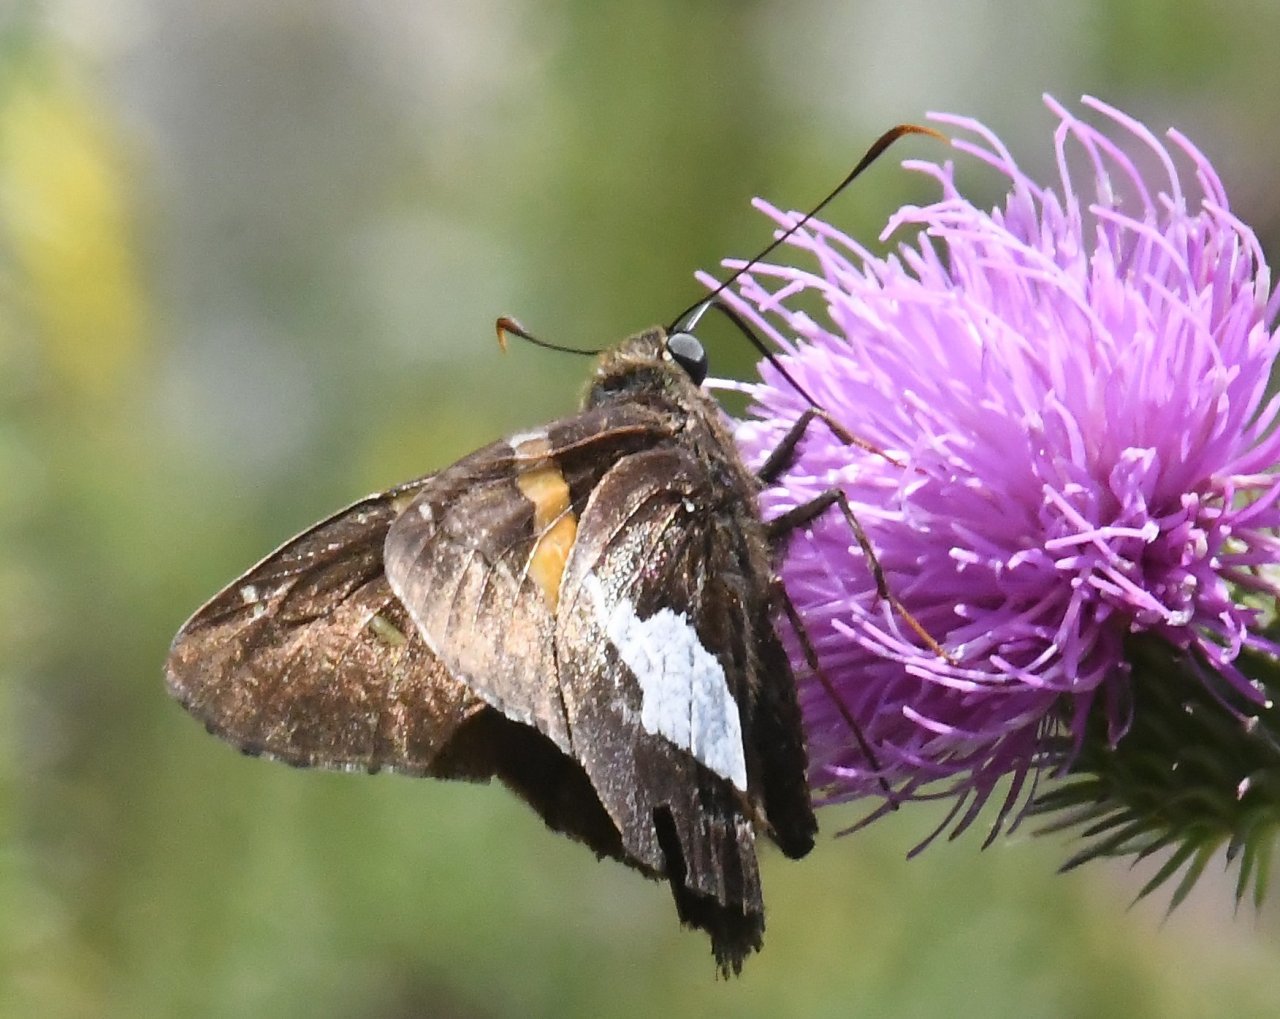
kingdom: Animalia
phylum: Arthropoda
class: Insecta
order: Lepidoptera
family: Hesperiidae
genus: Epargyreus
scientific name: Epargyreus clarus
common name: Silver-spotted Skipper
